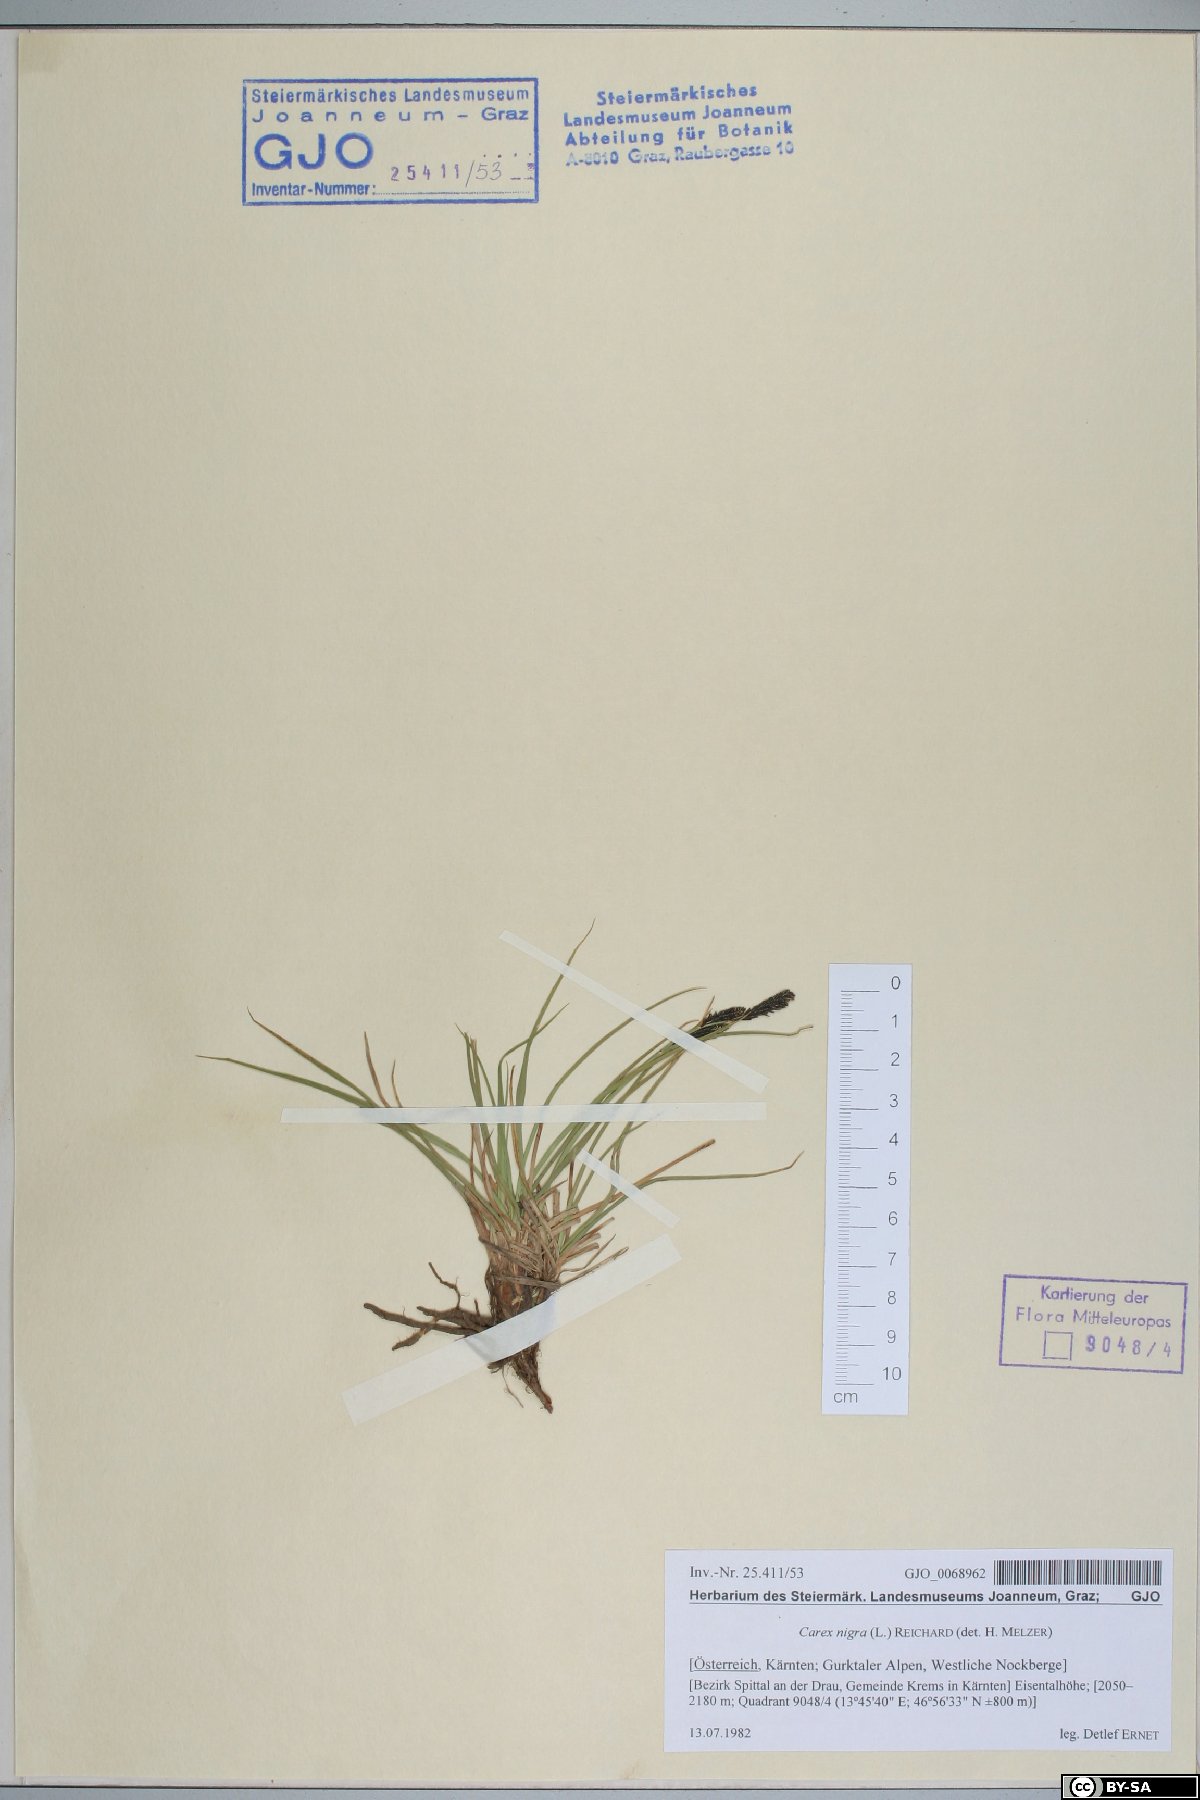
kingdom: Plantae
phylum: Tracheophyta
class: Liliopsida
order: Poales
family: Cyperaceae
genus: Carex
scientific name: Carex nigra
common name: Common sedge
